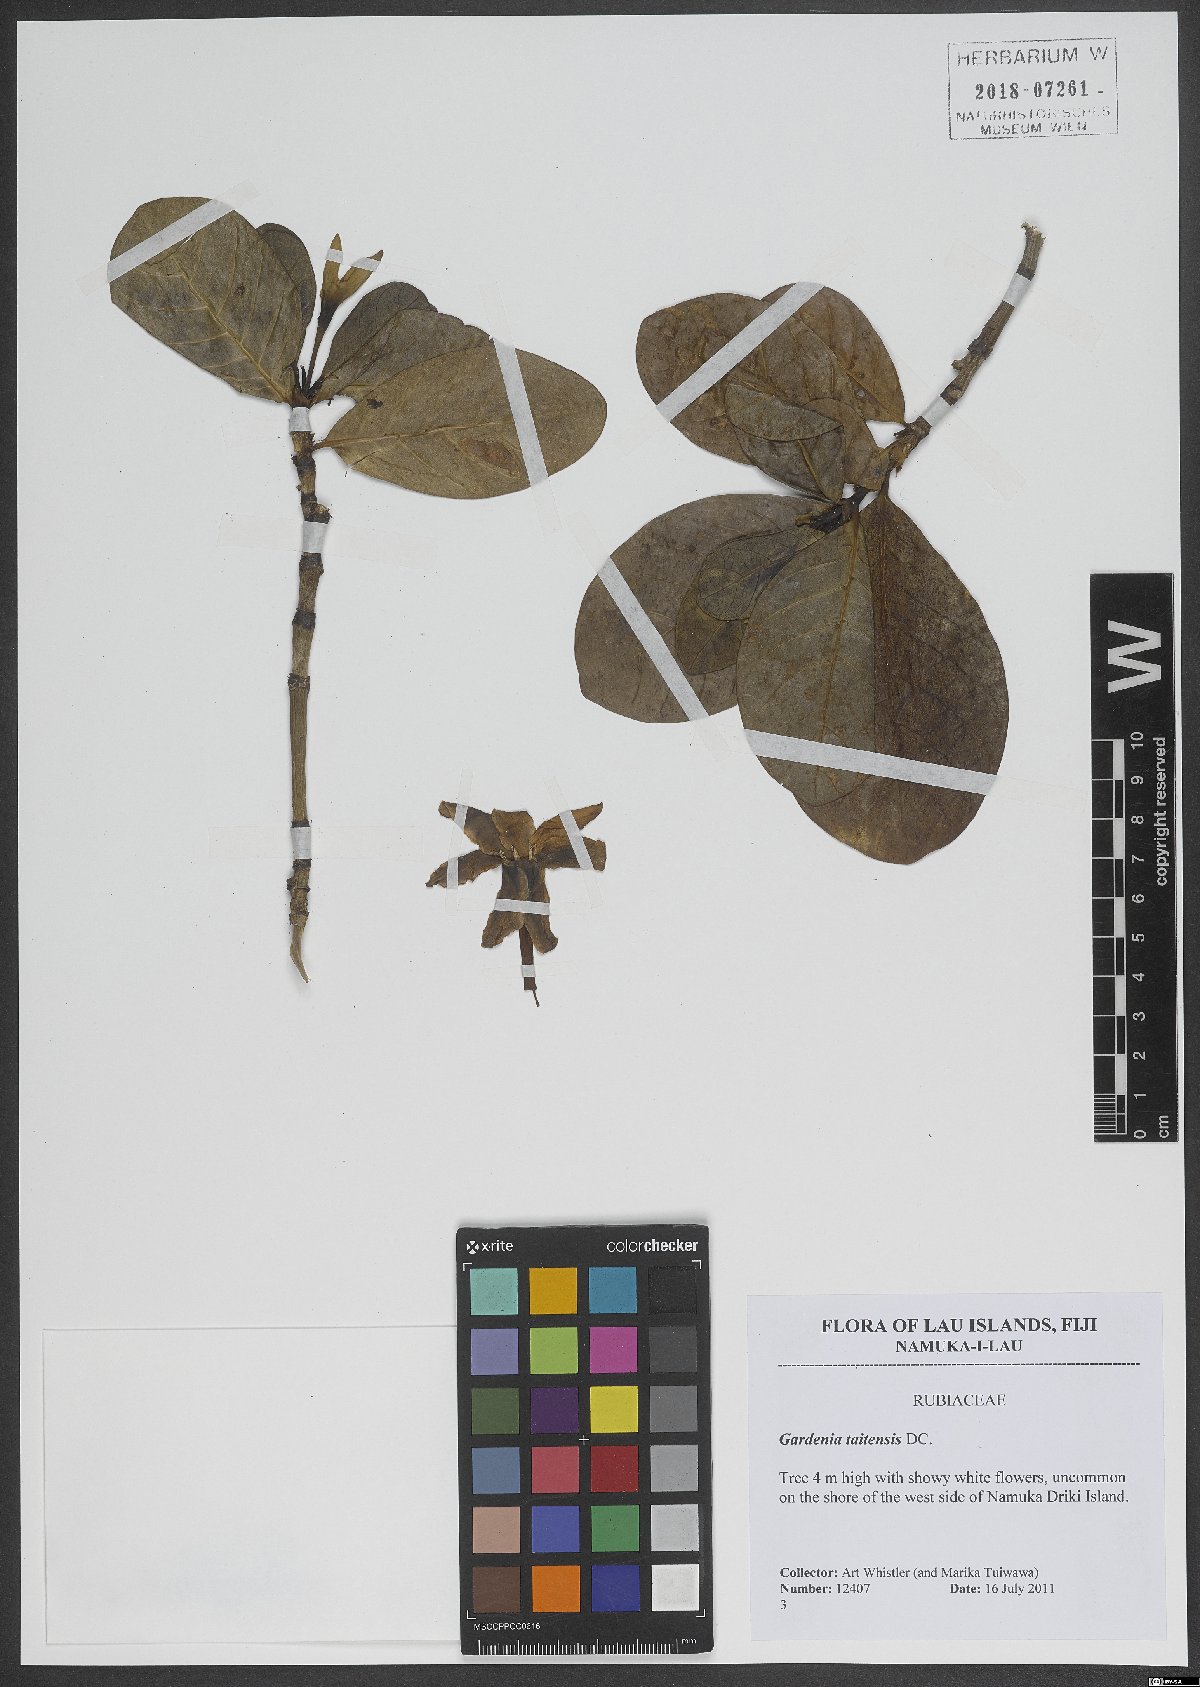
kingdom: Plantae
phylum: Tracheophyta
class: Magnoliopsida
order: Gentianales
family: Rubiaceae
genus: Gardenia
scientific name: Gardenia taitensis
